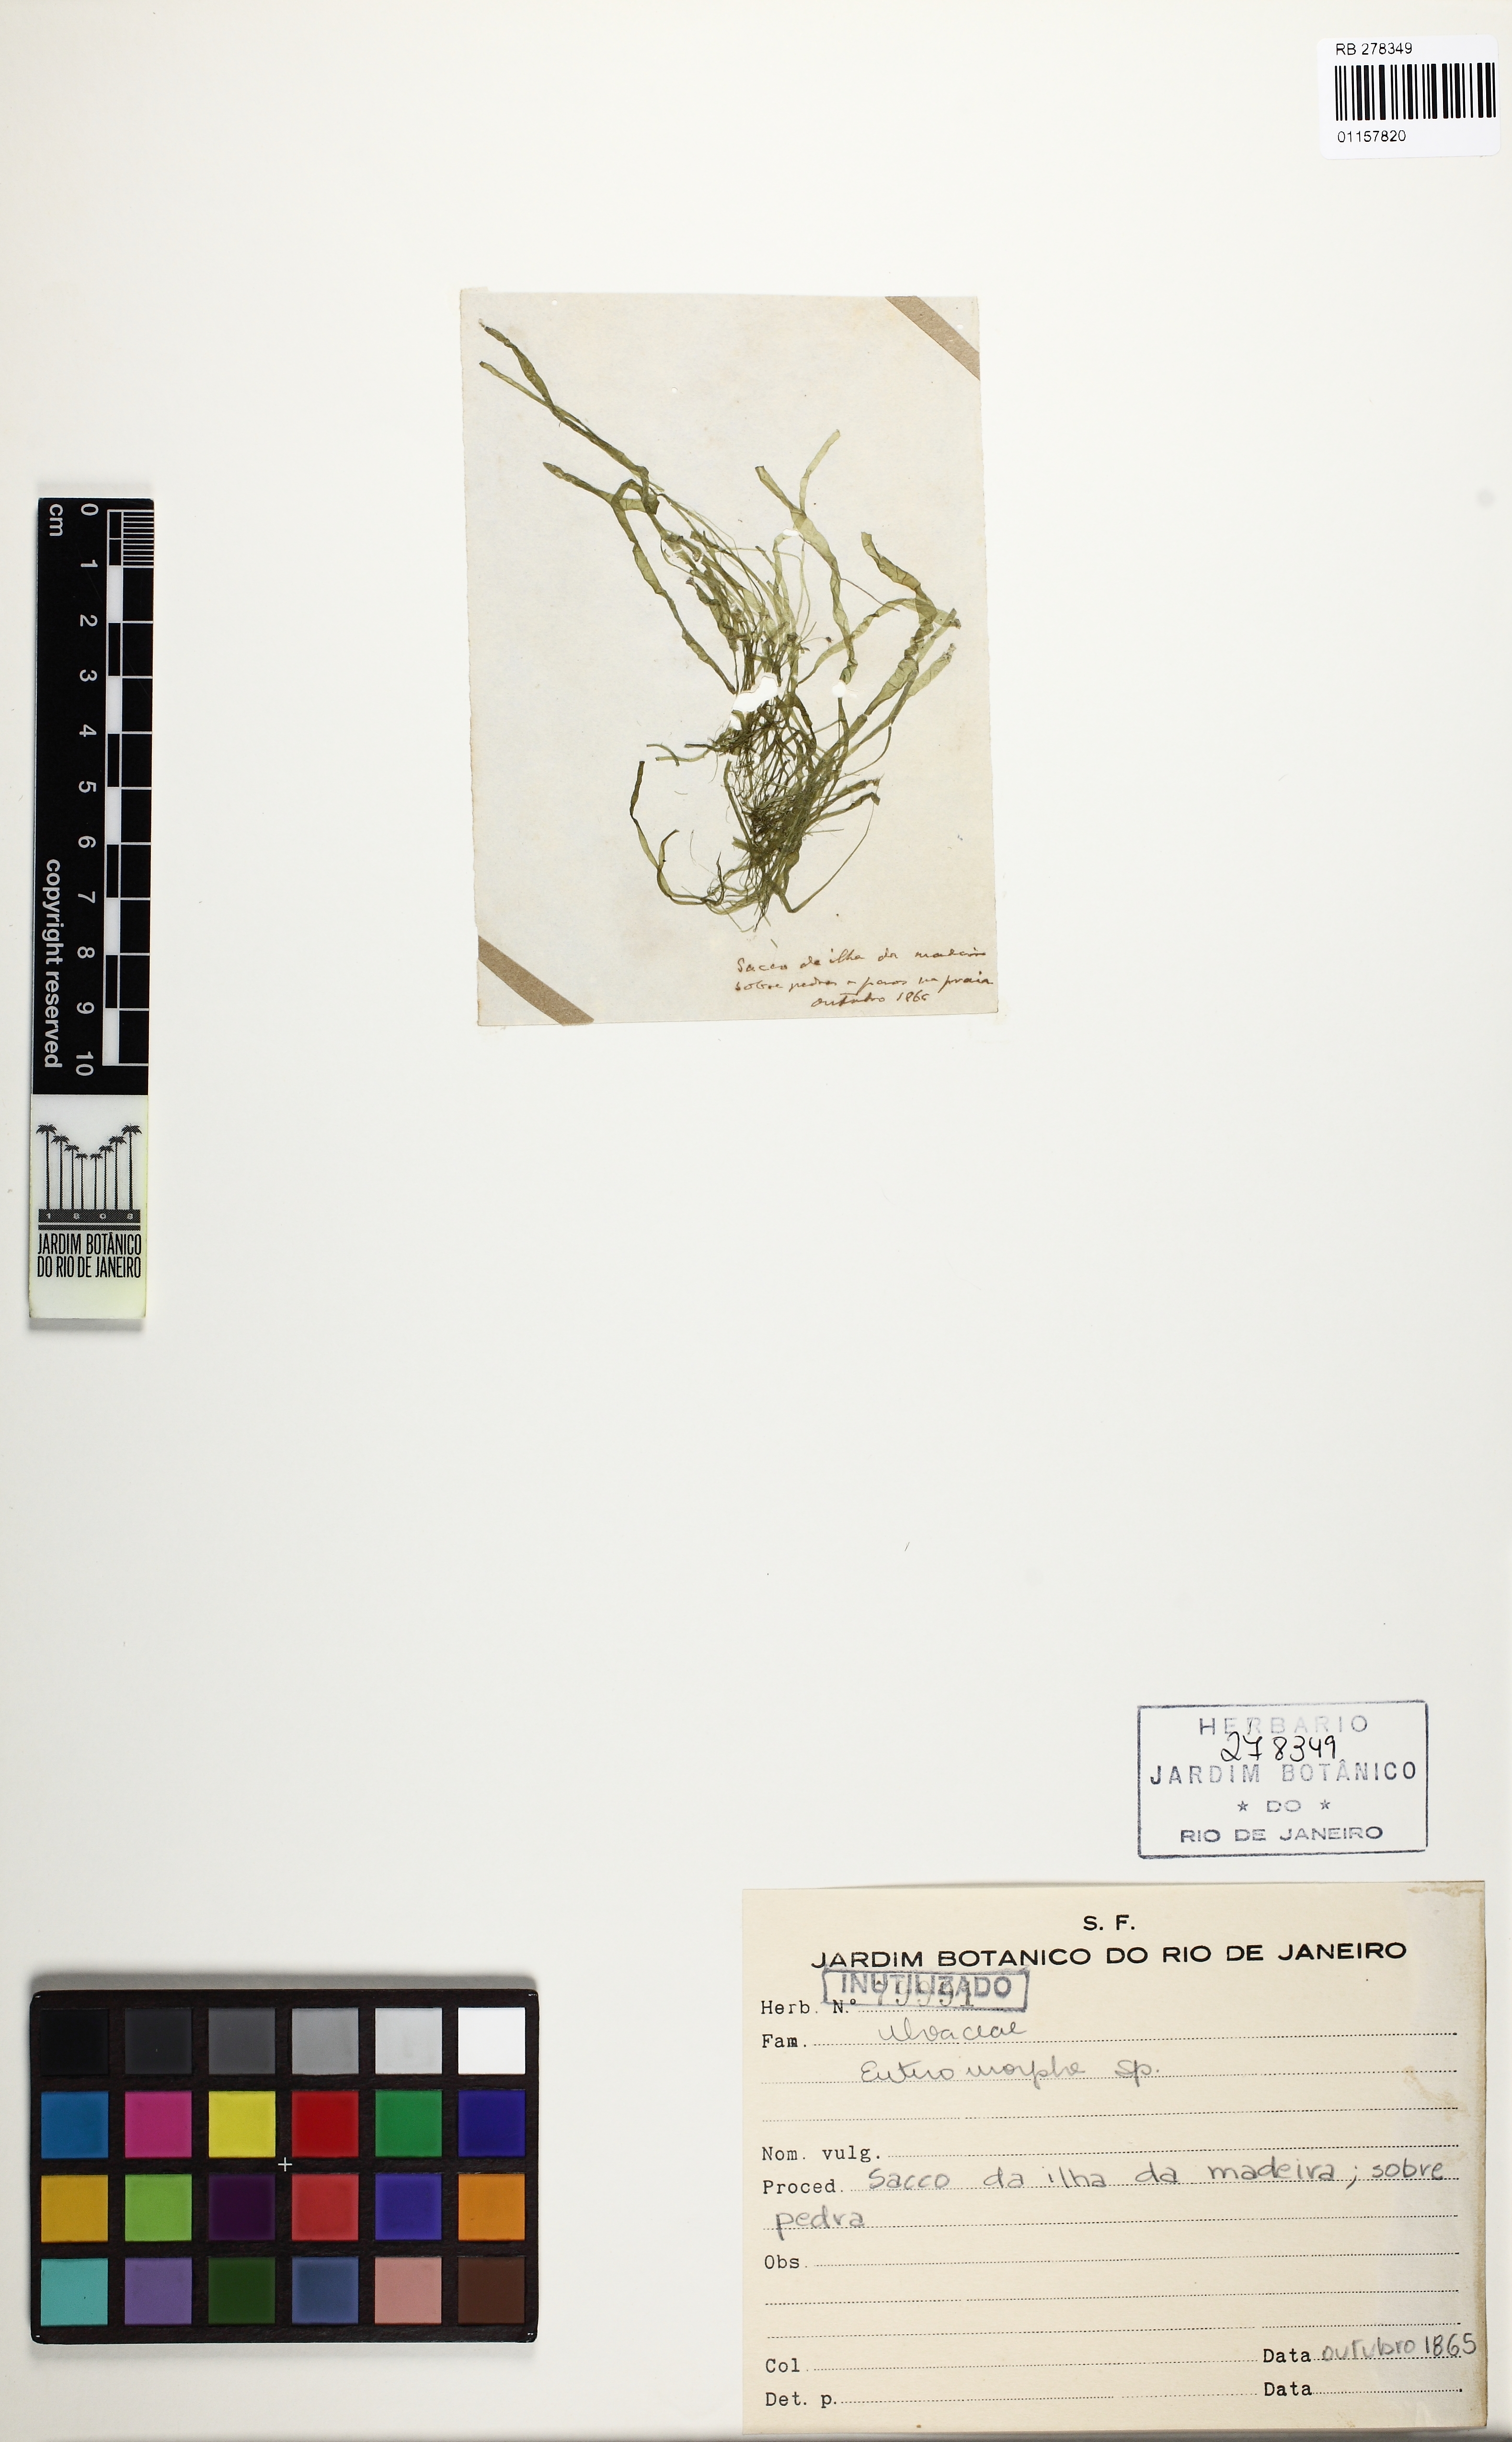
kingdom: Plantae
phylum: Chlorophyta
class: Ulvophyceae
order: Ulvales
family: Ulvaceae
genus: Ulva
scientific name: Ulva
